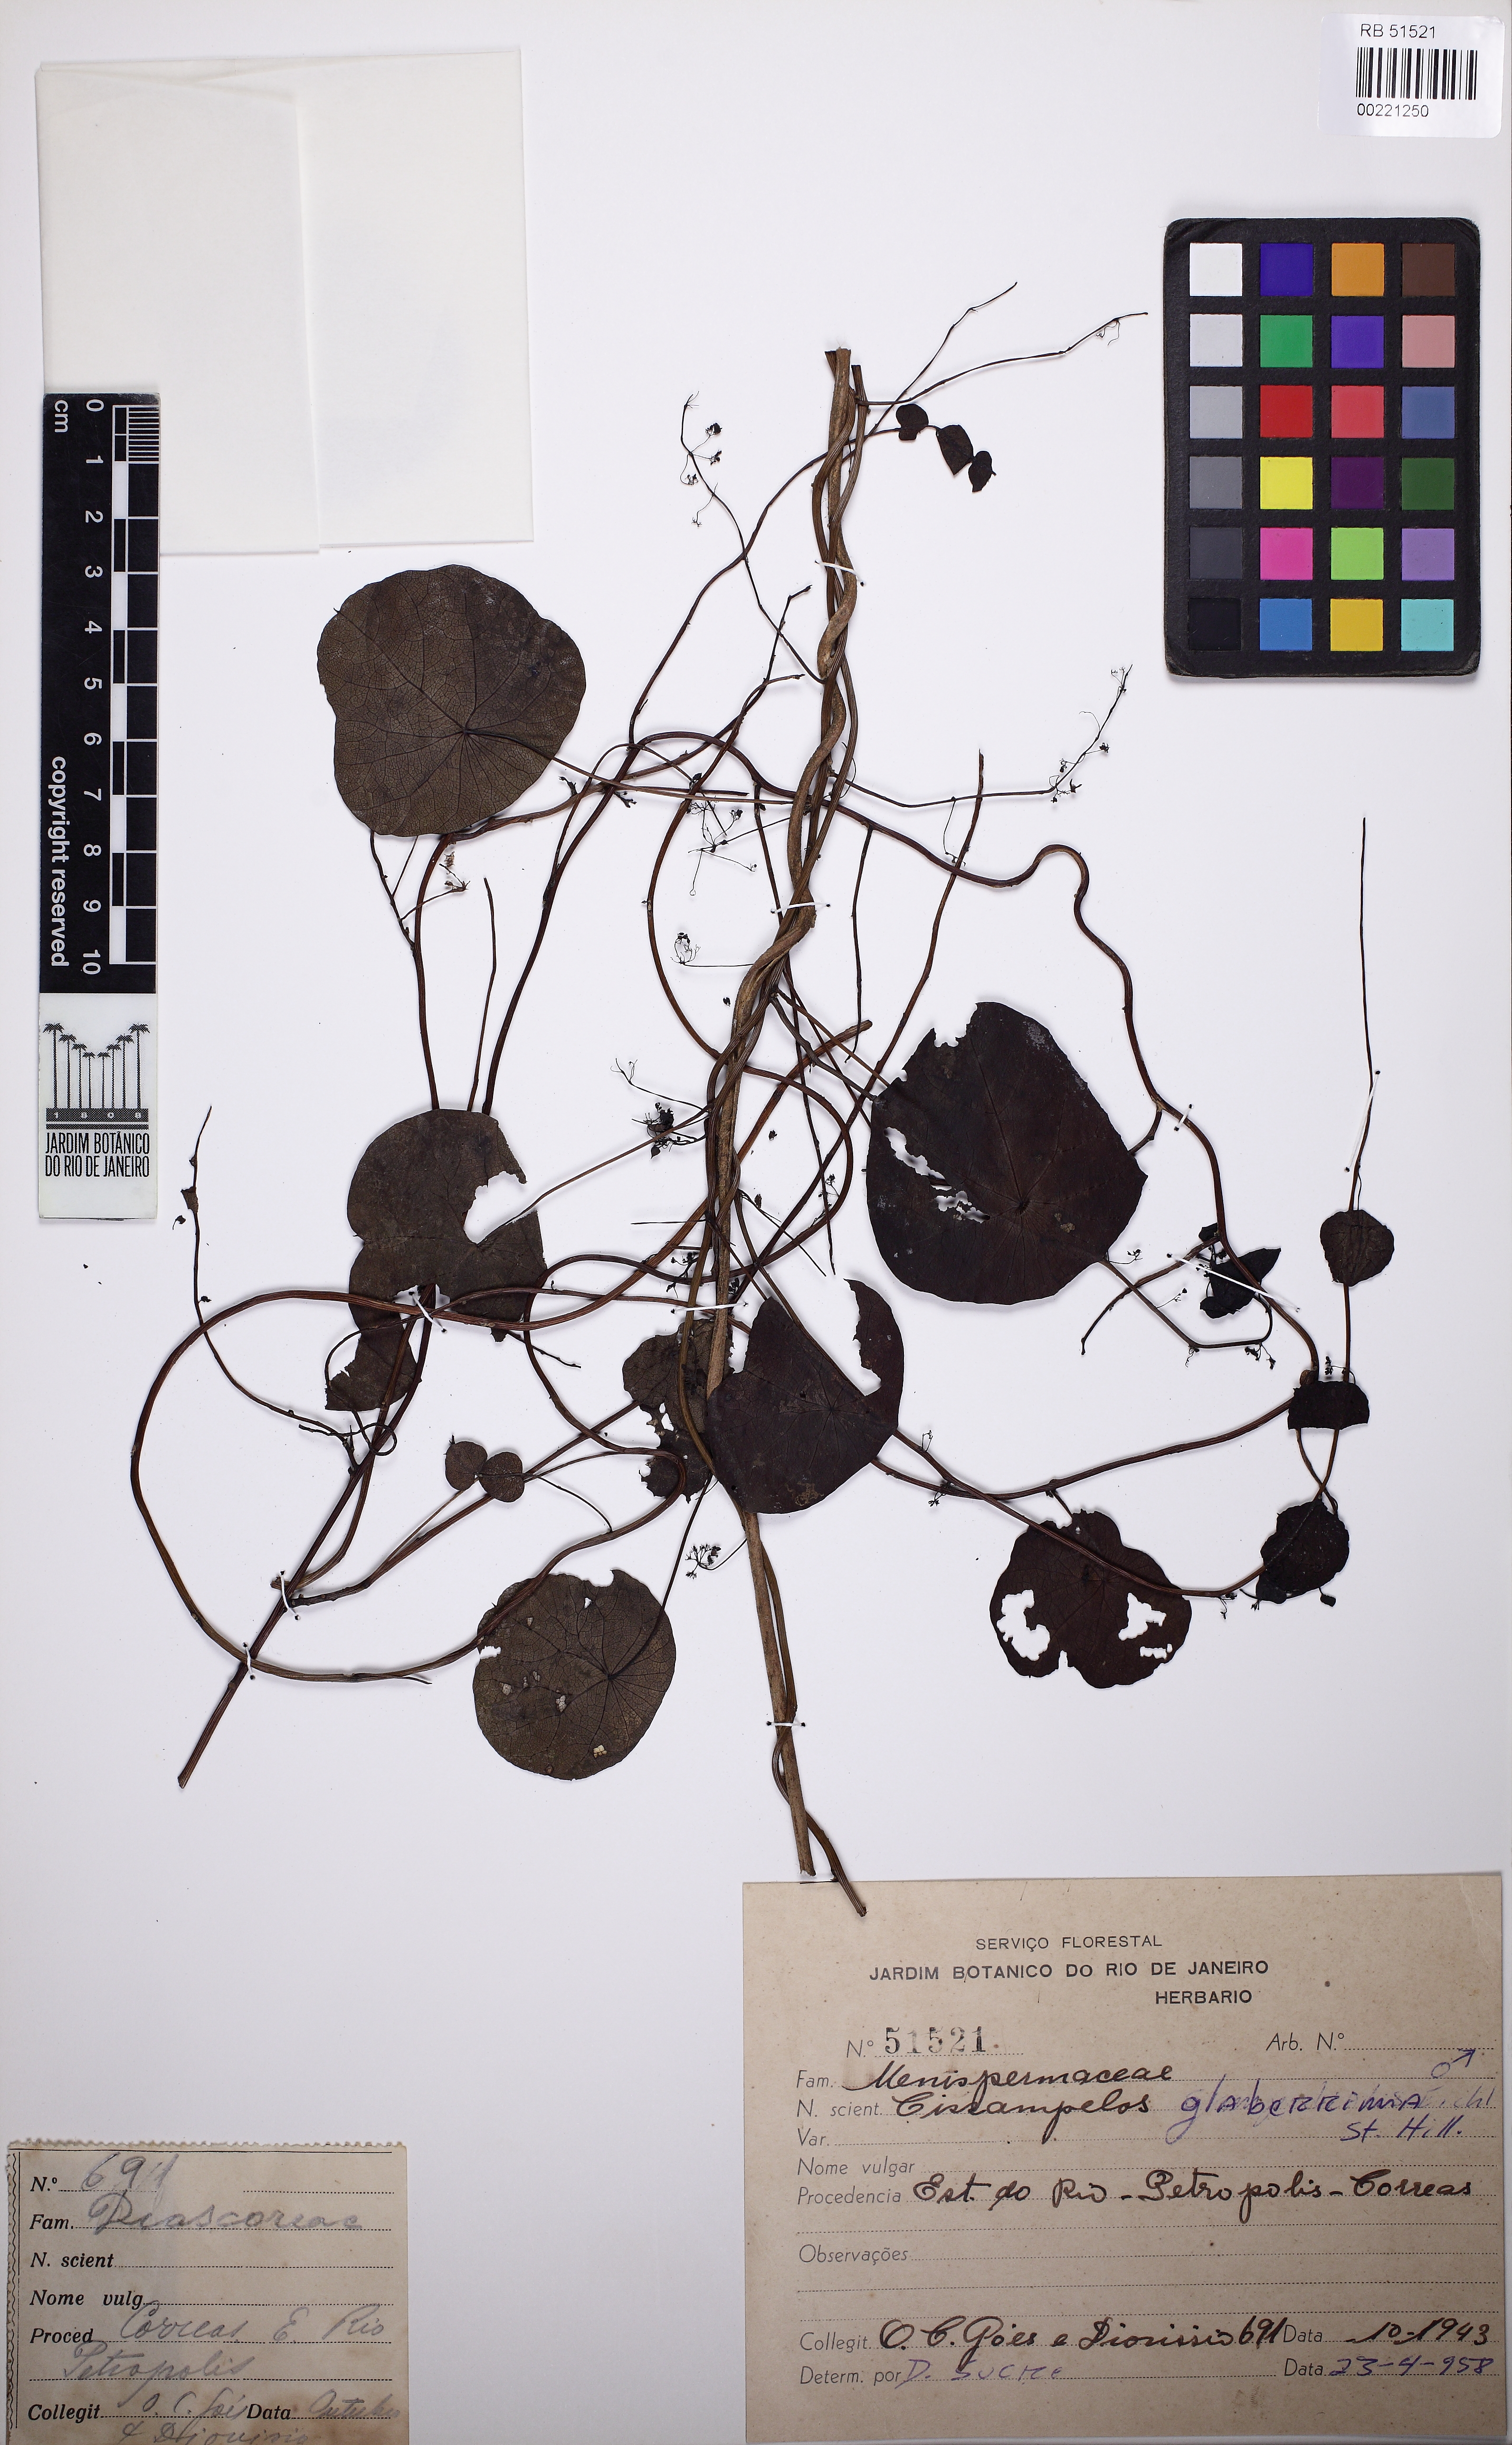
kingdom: Plantae
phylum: Tracheophyta
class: Magnoliopsida
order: Ranunculales
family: Menispermaceae
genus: Cissampelos
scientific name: Cissampelos glaberrima
